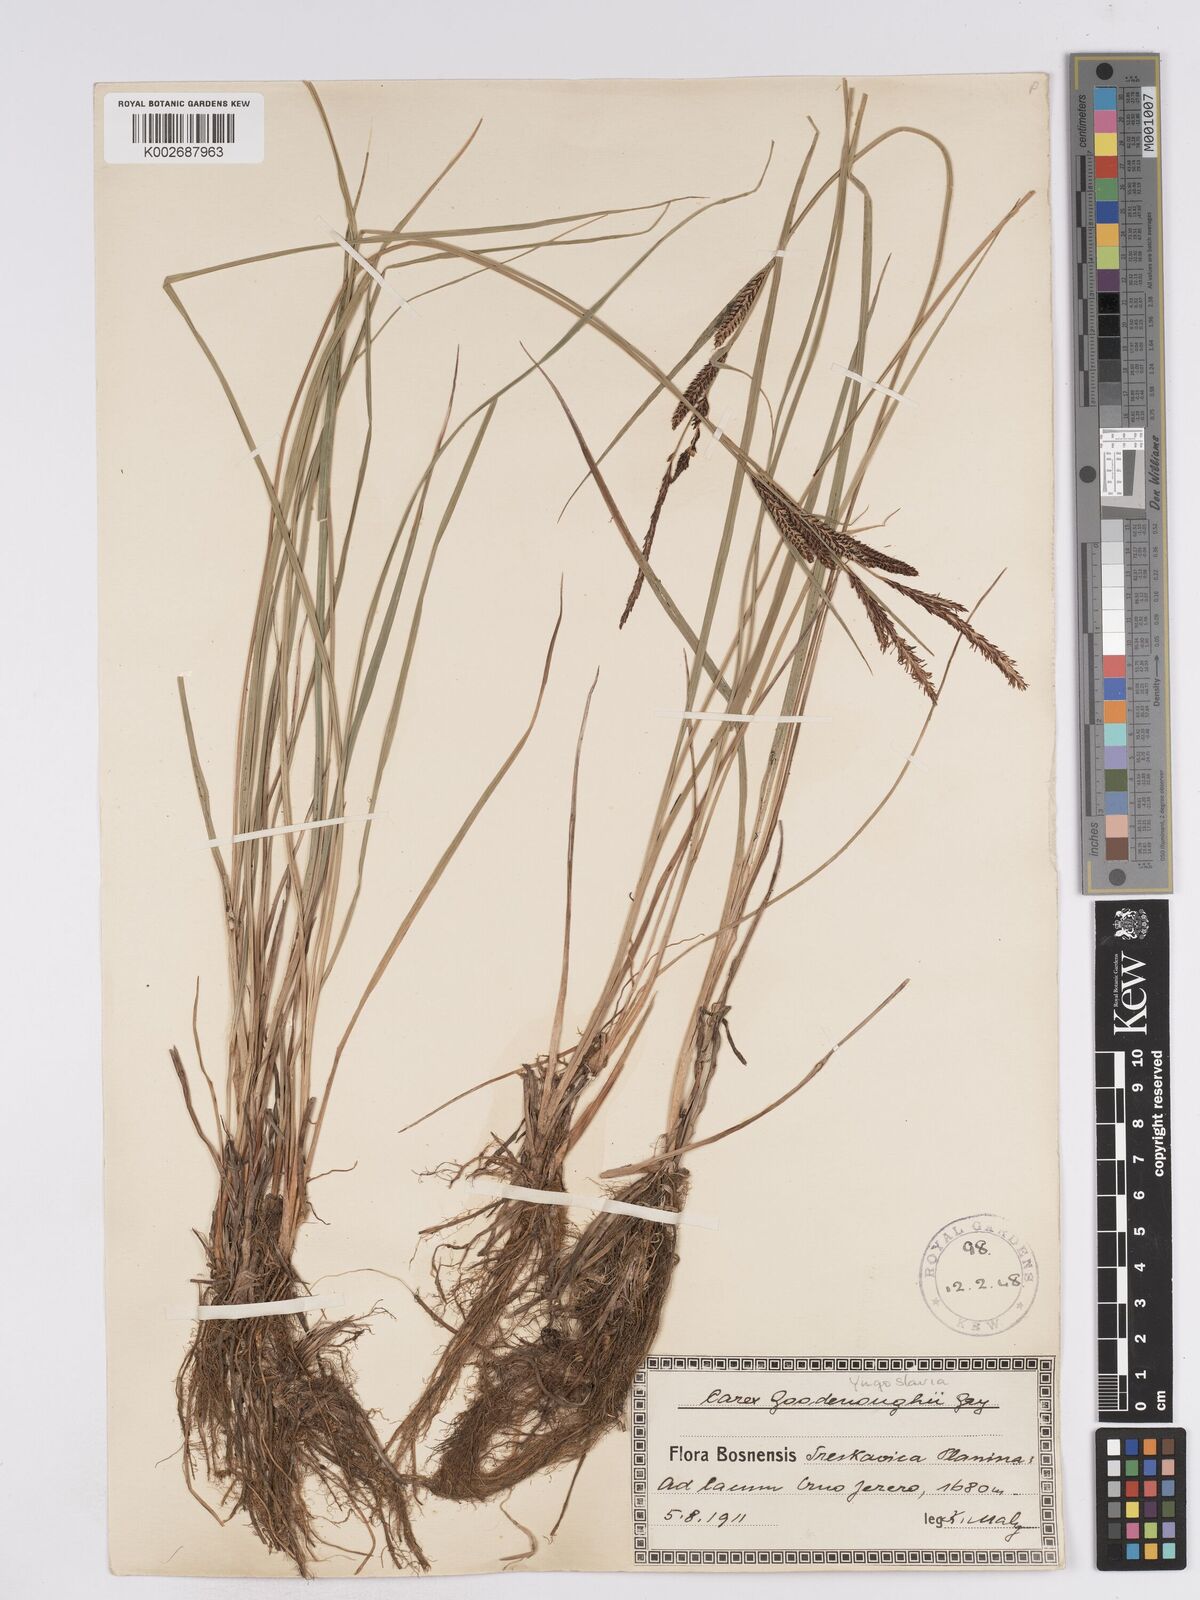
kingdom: Plantae
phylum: Tracheophyta
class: Liliopsida
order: Poales
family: Cyperaceae
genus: Carex
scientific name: Carex acuta
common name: Slender tufted-sedge
